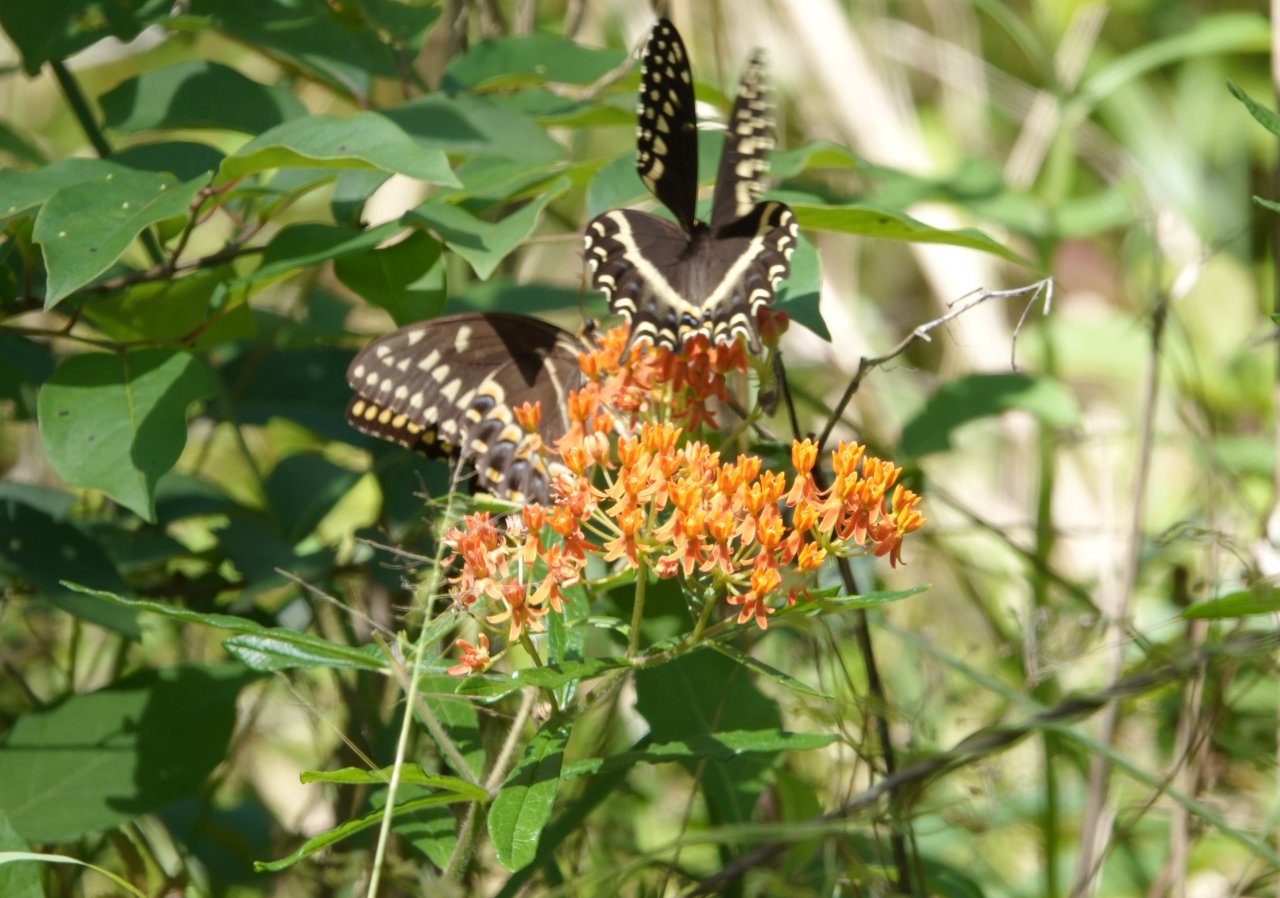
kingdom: Animalia
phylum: Arthropoda
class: Insecta
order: Lepidoptera
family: Papilionidae
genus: Pterourus
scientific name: Pterourus palamedes
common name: Palamedes Swallowtail
